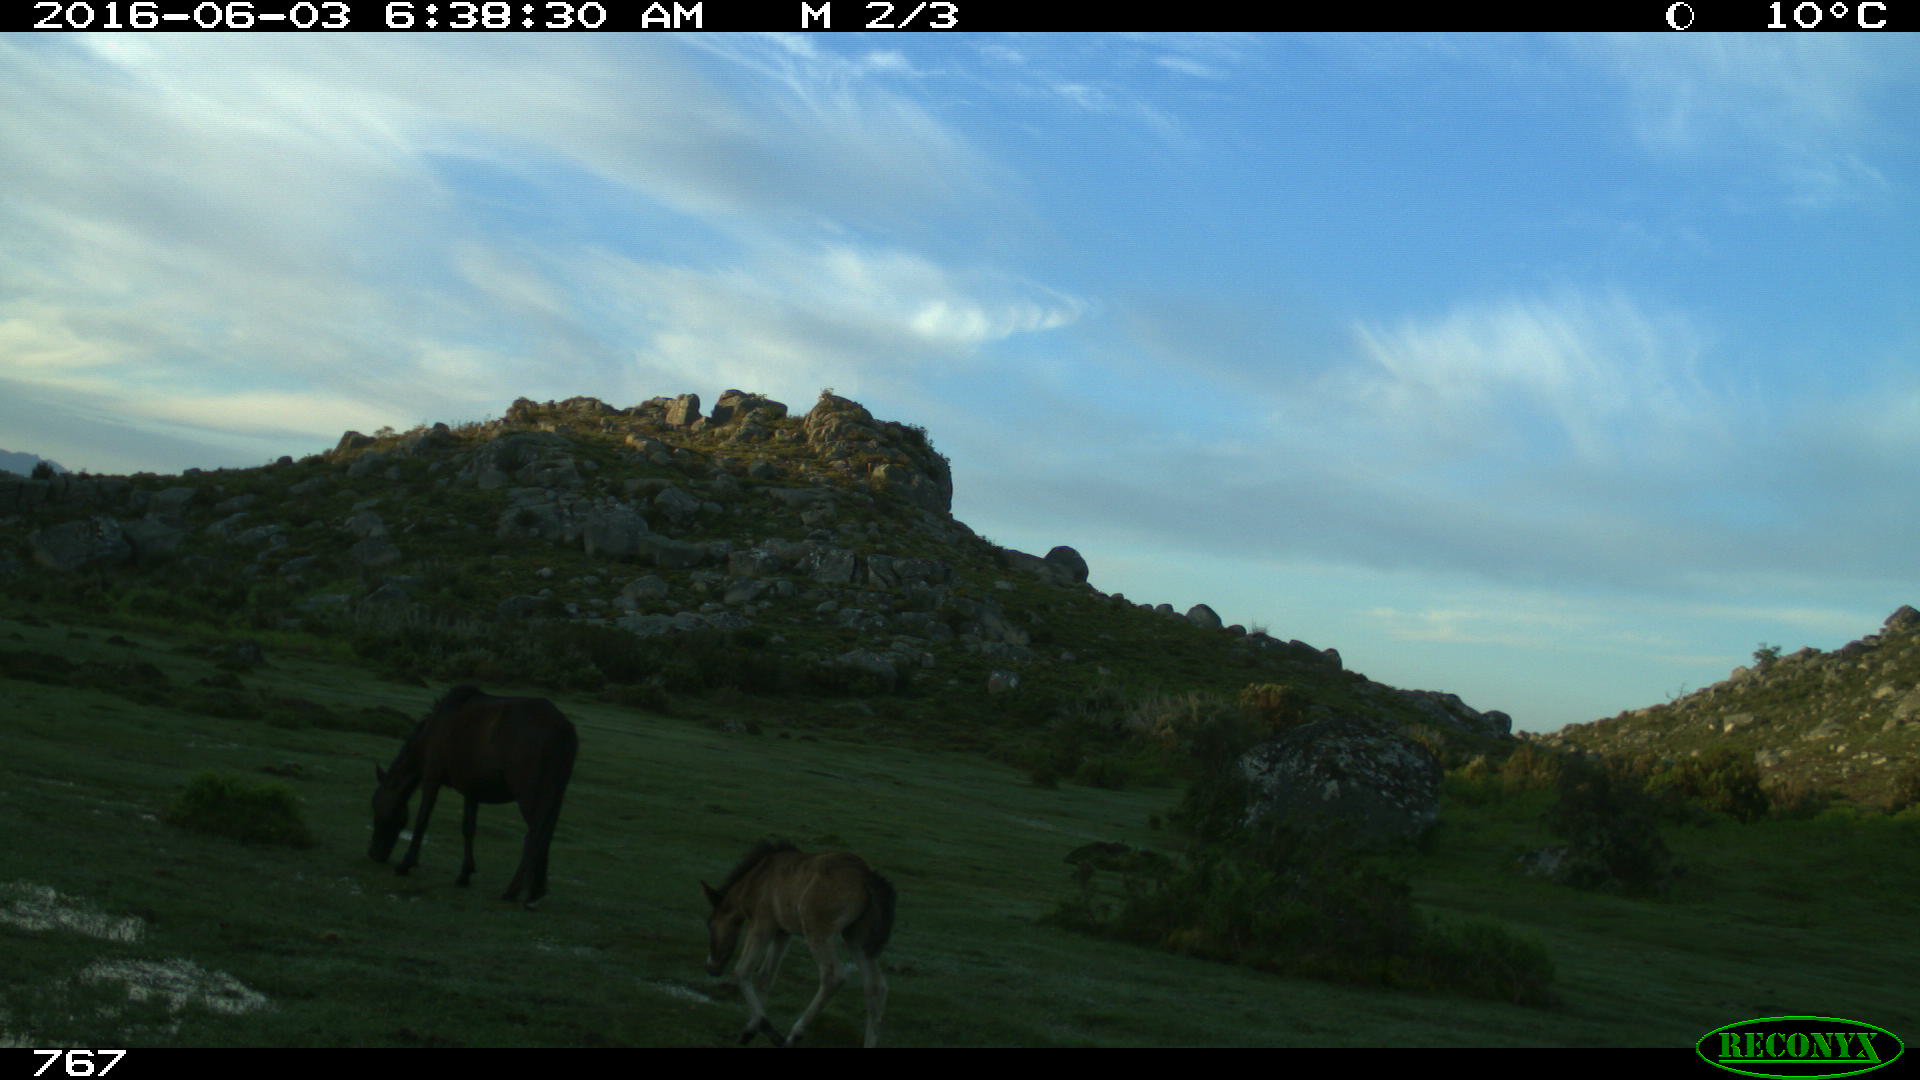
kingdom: Animalia
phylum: Chordata
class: Mammalia
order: Perissodactyla
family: Equidae
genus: Equus
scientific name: Equus caballus
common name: Horse
